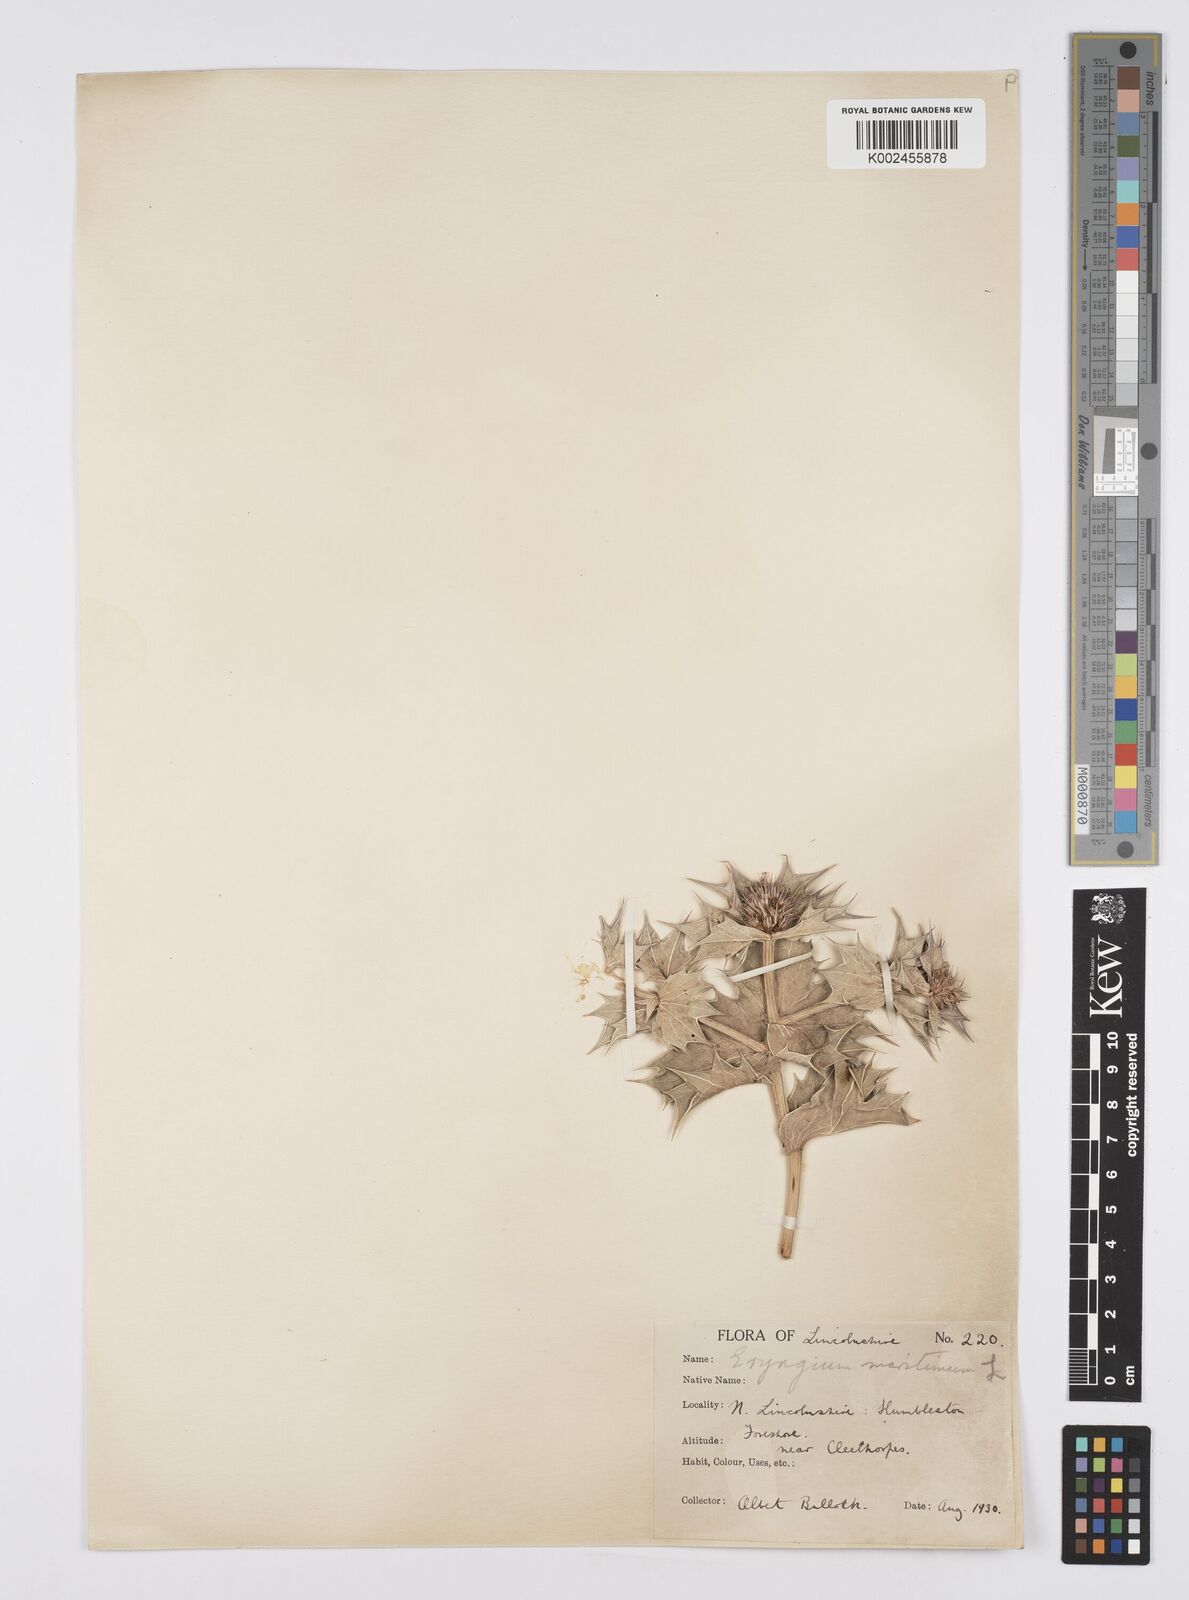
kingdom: Plantae
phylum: Tracheophyta
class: Magnoliopsida
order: Apiales
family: Apiaceae
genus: Eryngium
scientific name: Eryngium maritimum
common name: Sea-holly
